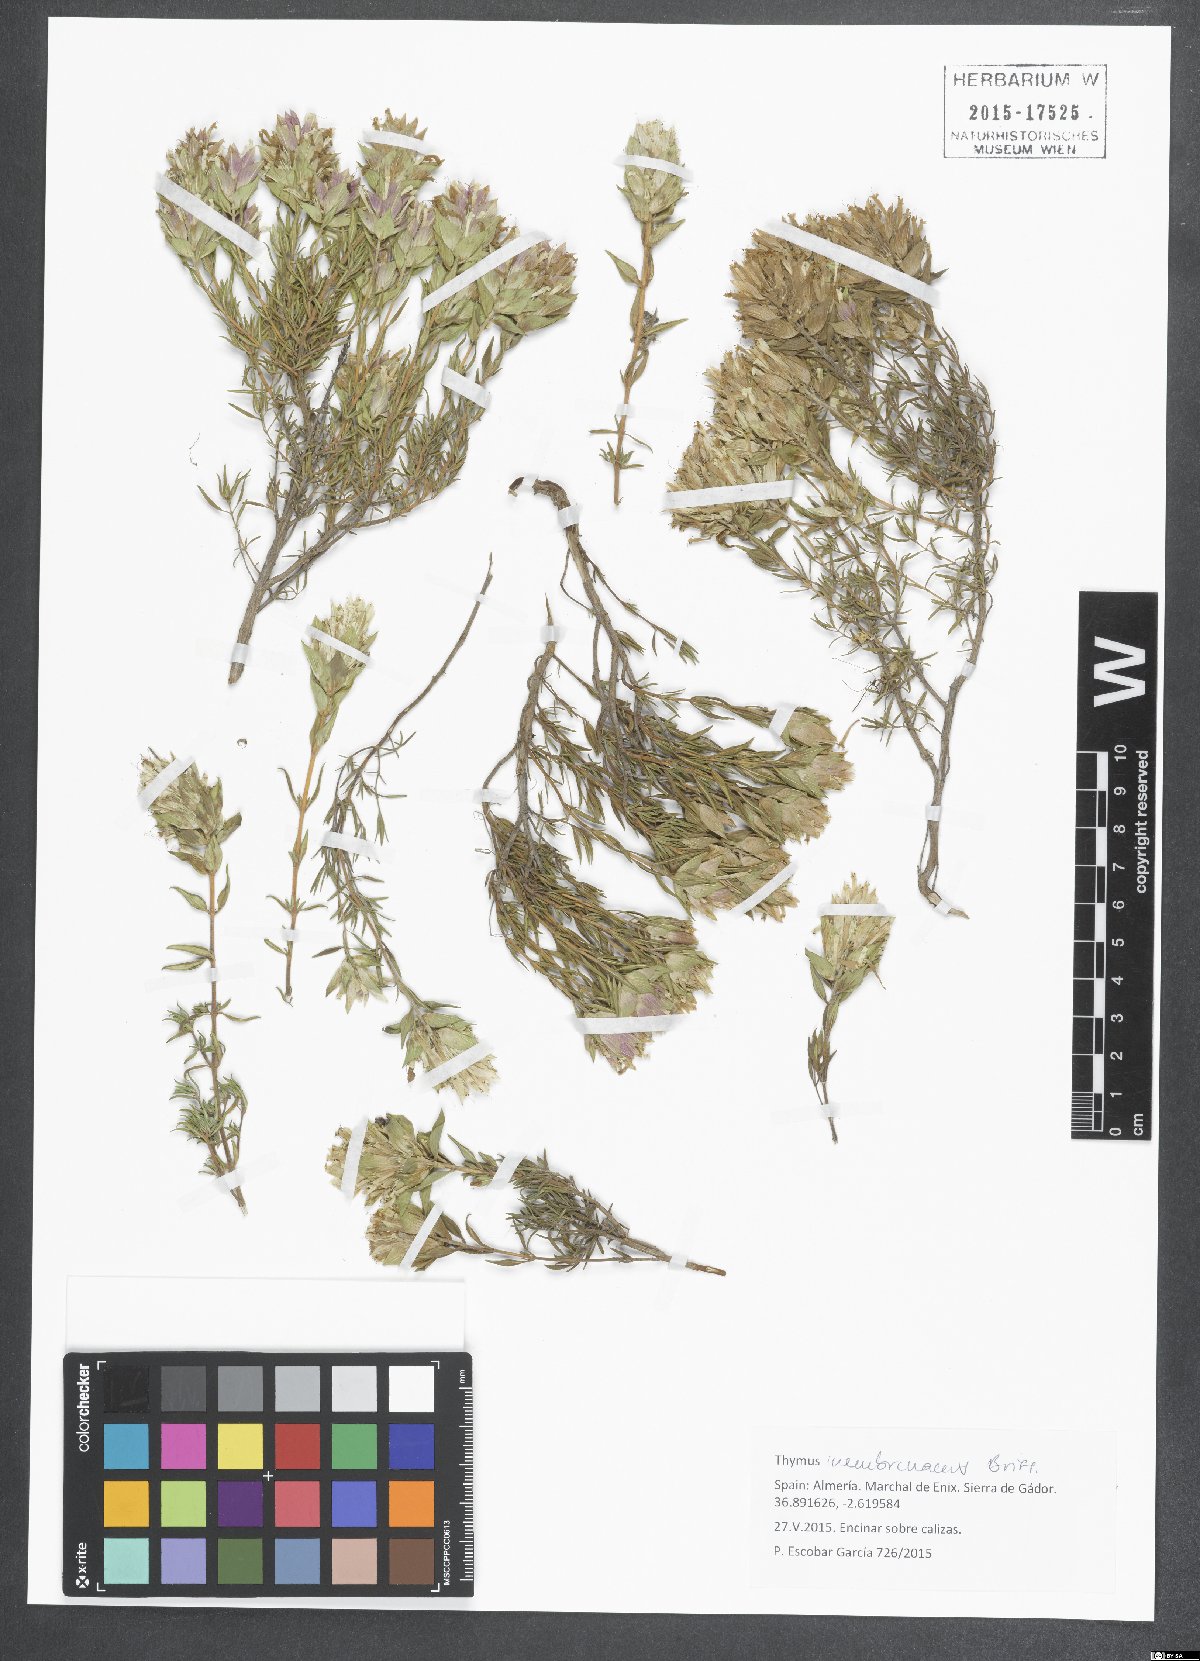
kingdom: Plantae
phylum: Tracheophyta
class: Magnoliopsida
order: Lamiales
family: Lamiaceae
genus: Thymus
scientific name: Thymus membranaceus
